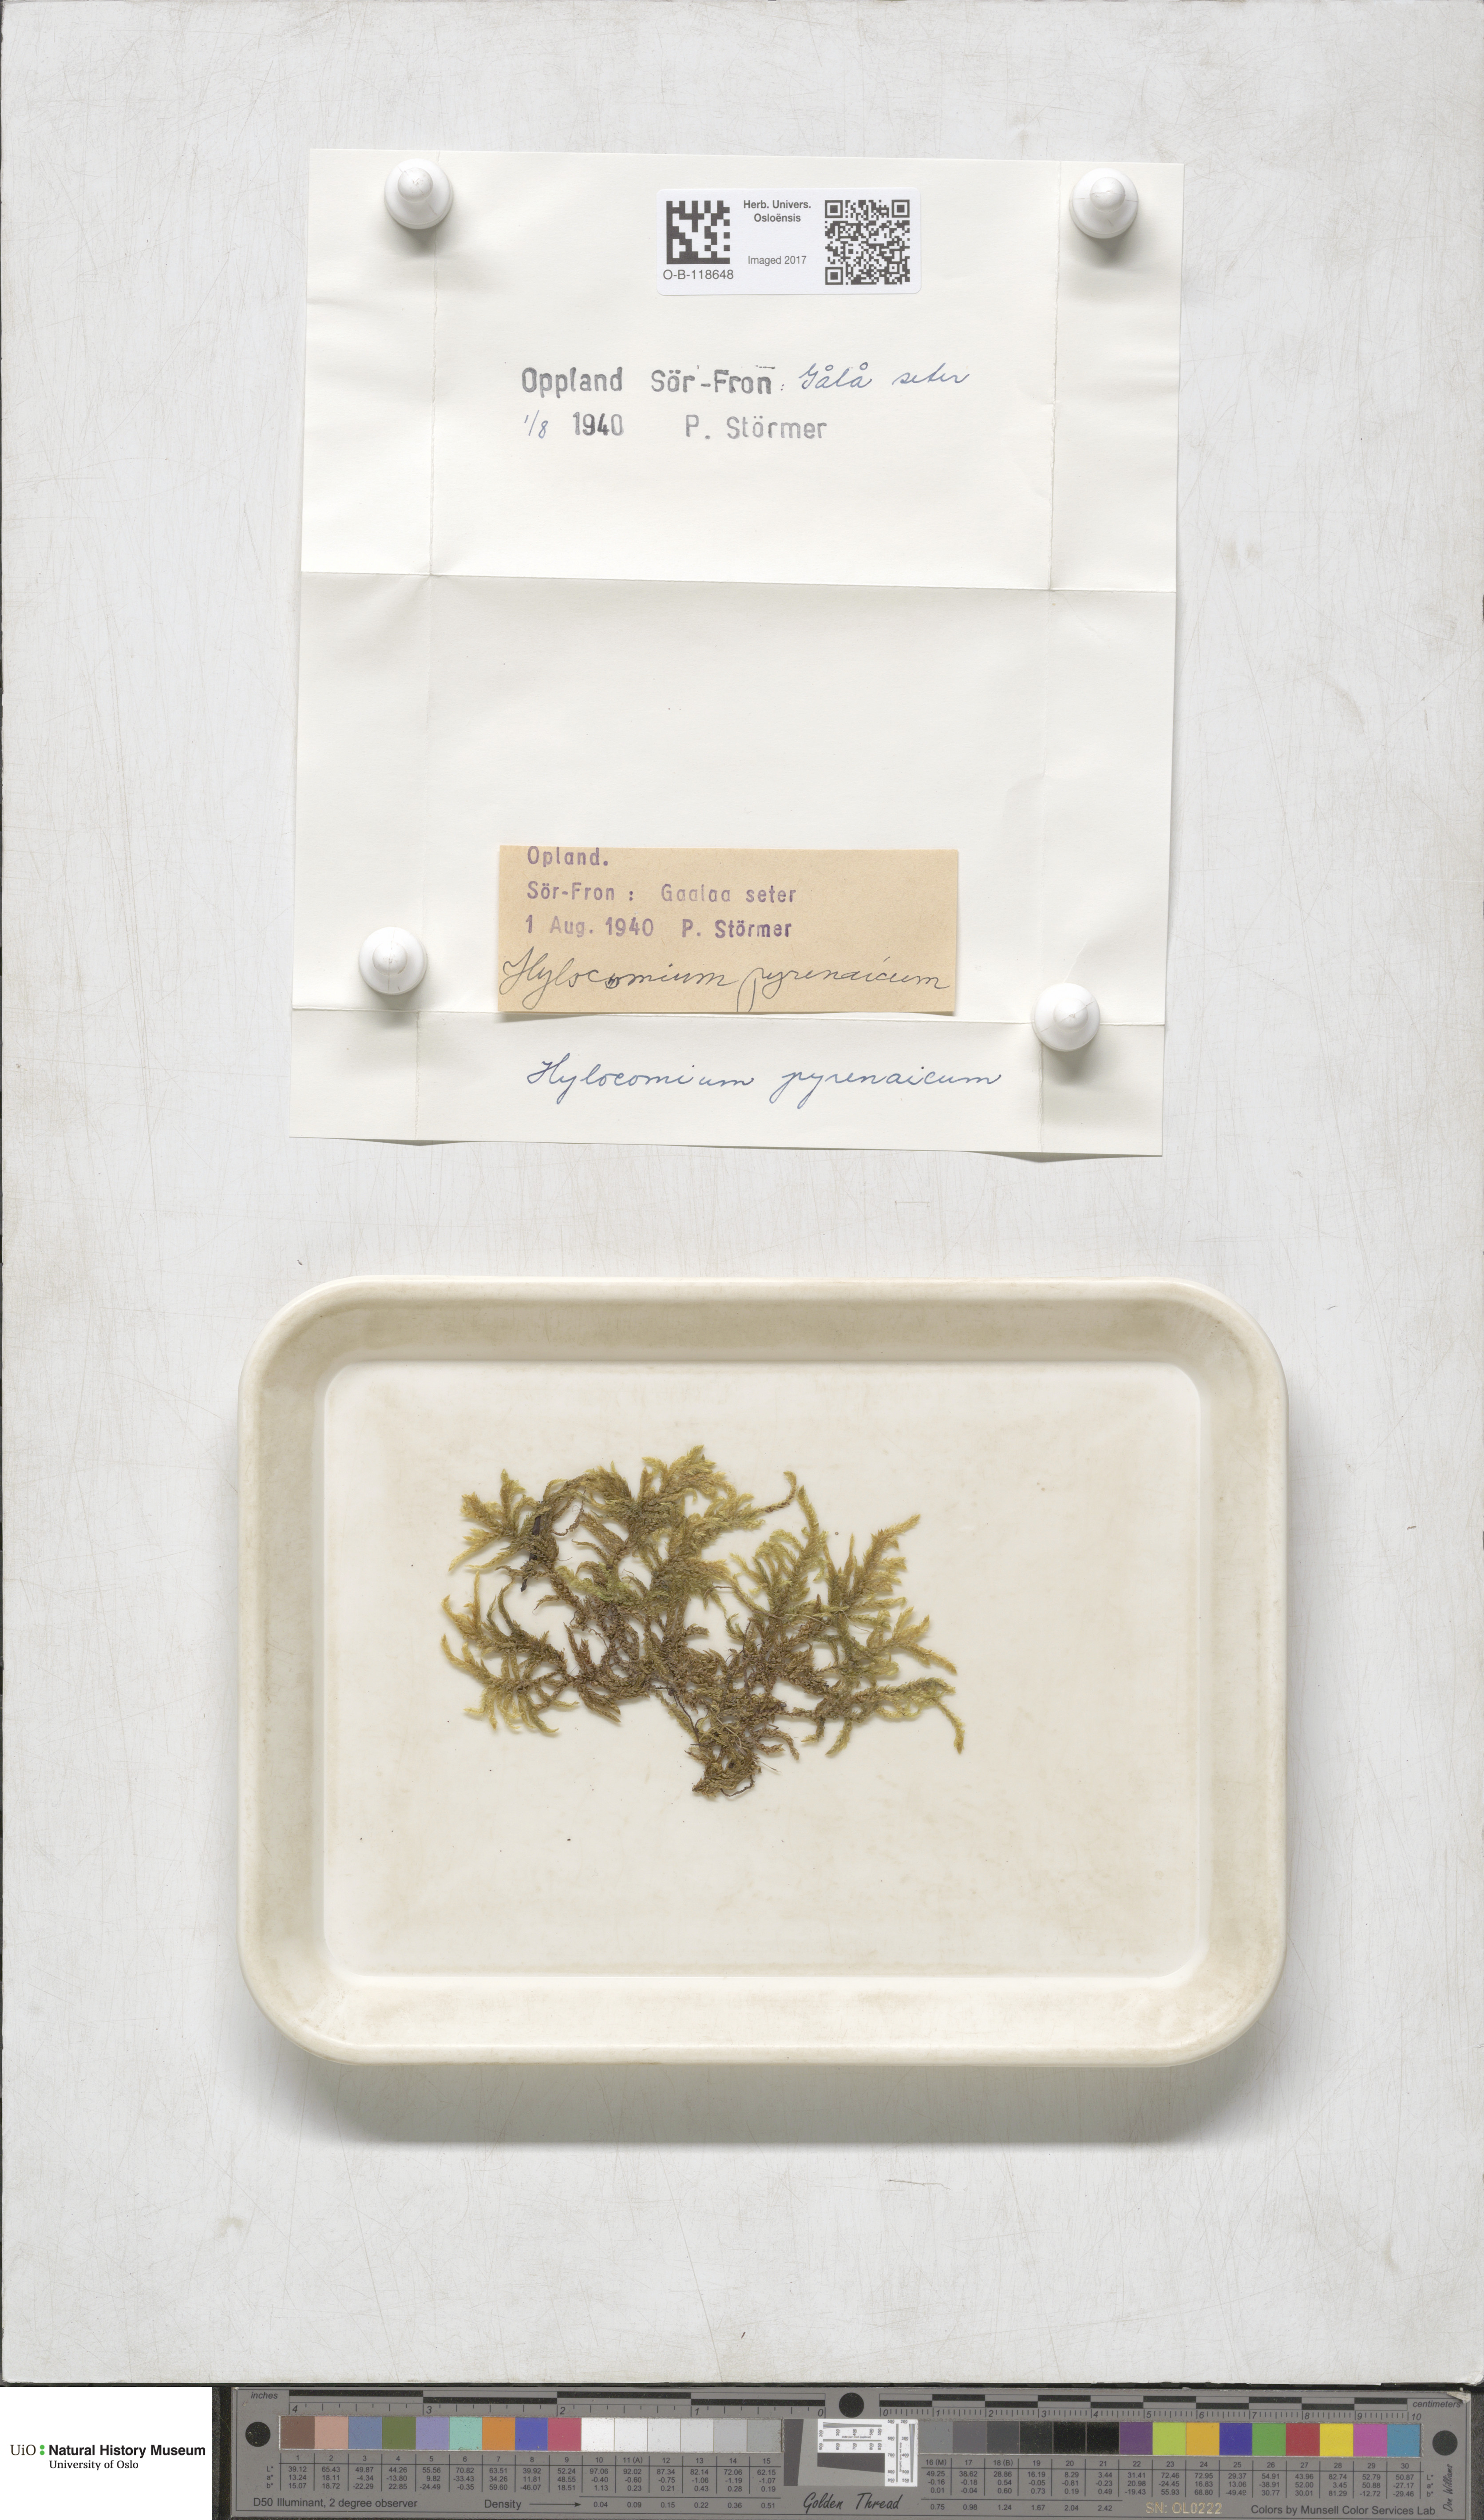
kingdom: Plantae
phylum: Bryophyta
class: Bryopsida
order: Hypnales
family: Hylocomiaceae
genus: Hylocomiastrum
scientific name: Hylocomiastrum pyrenaicum
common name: Oake s wood moss
